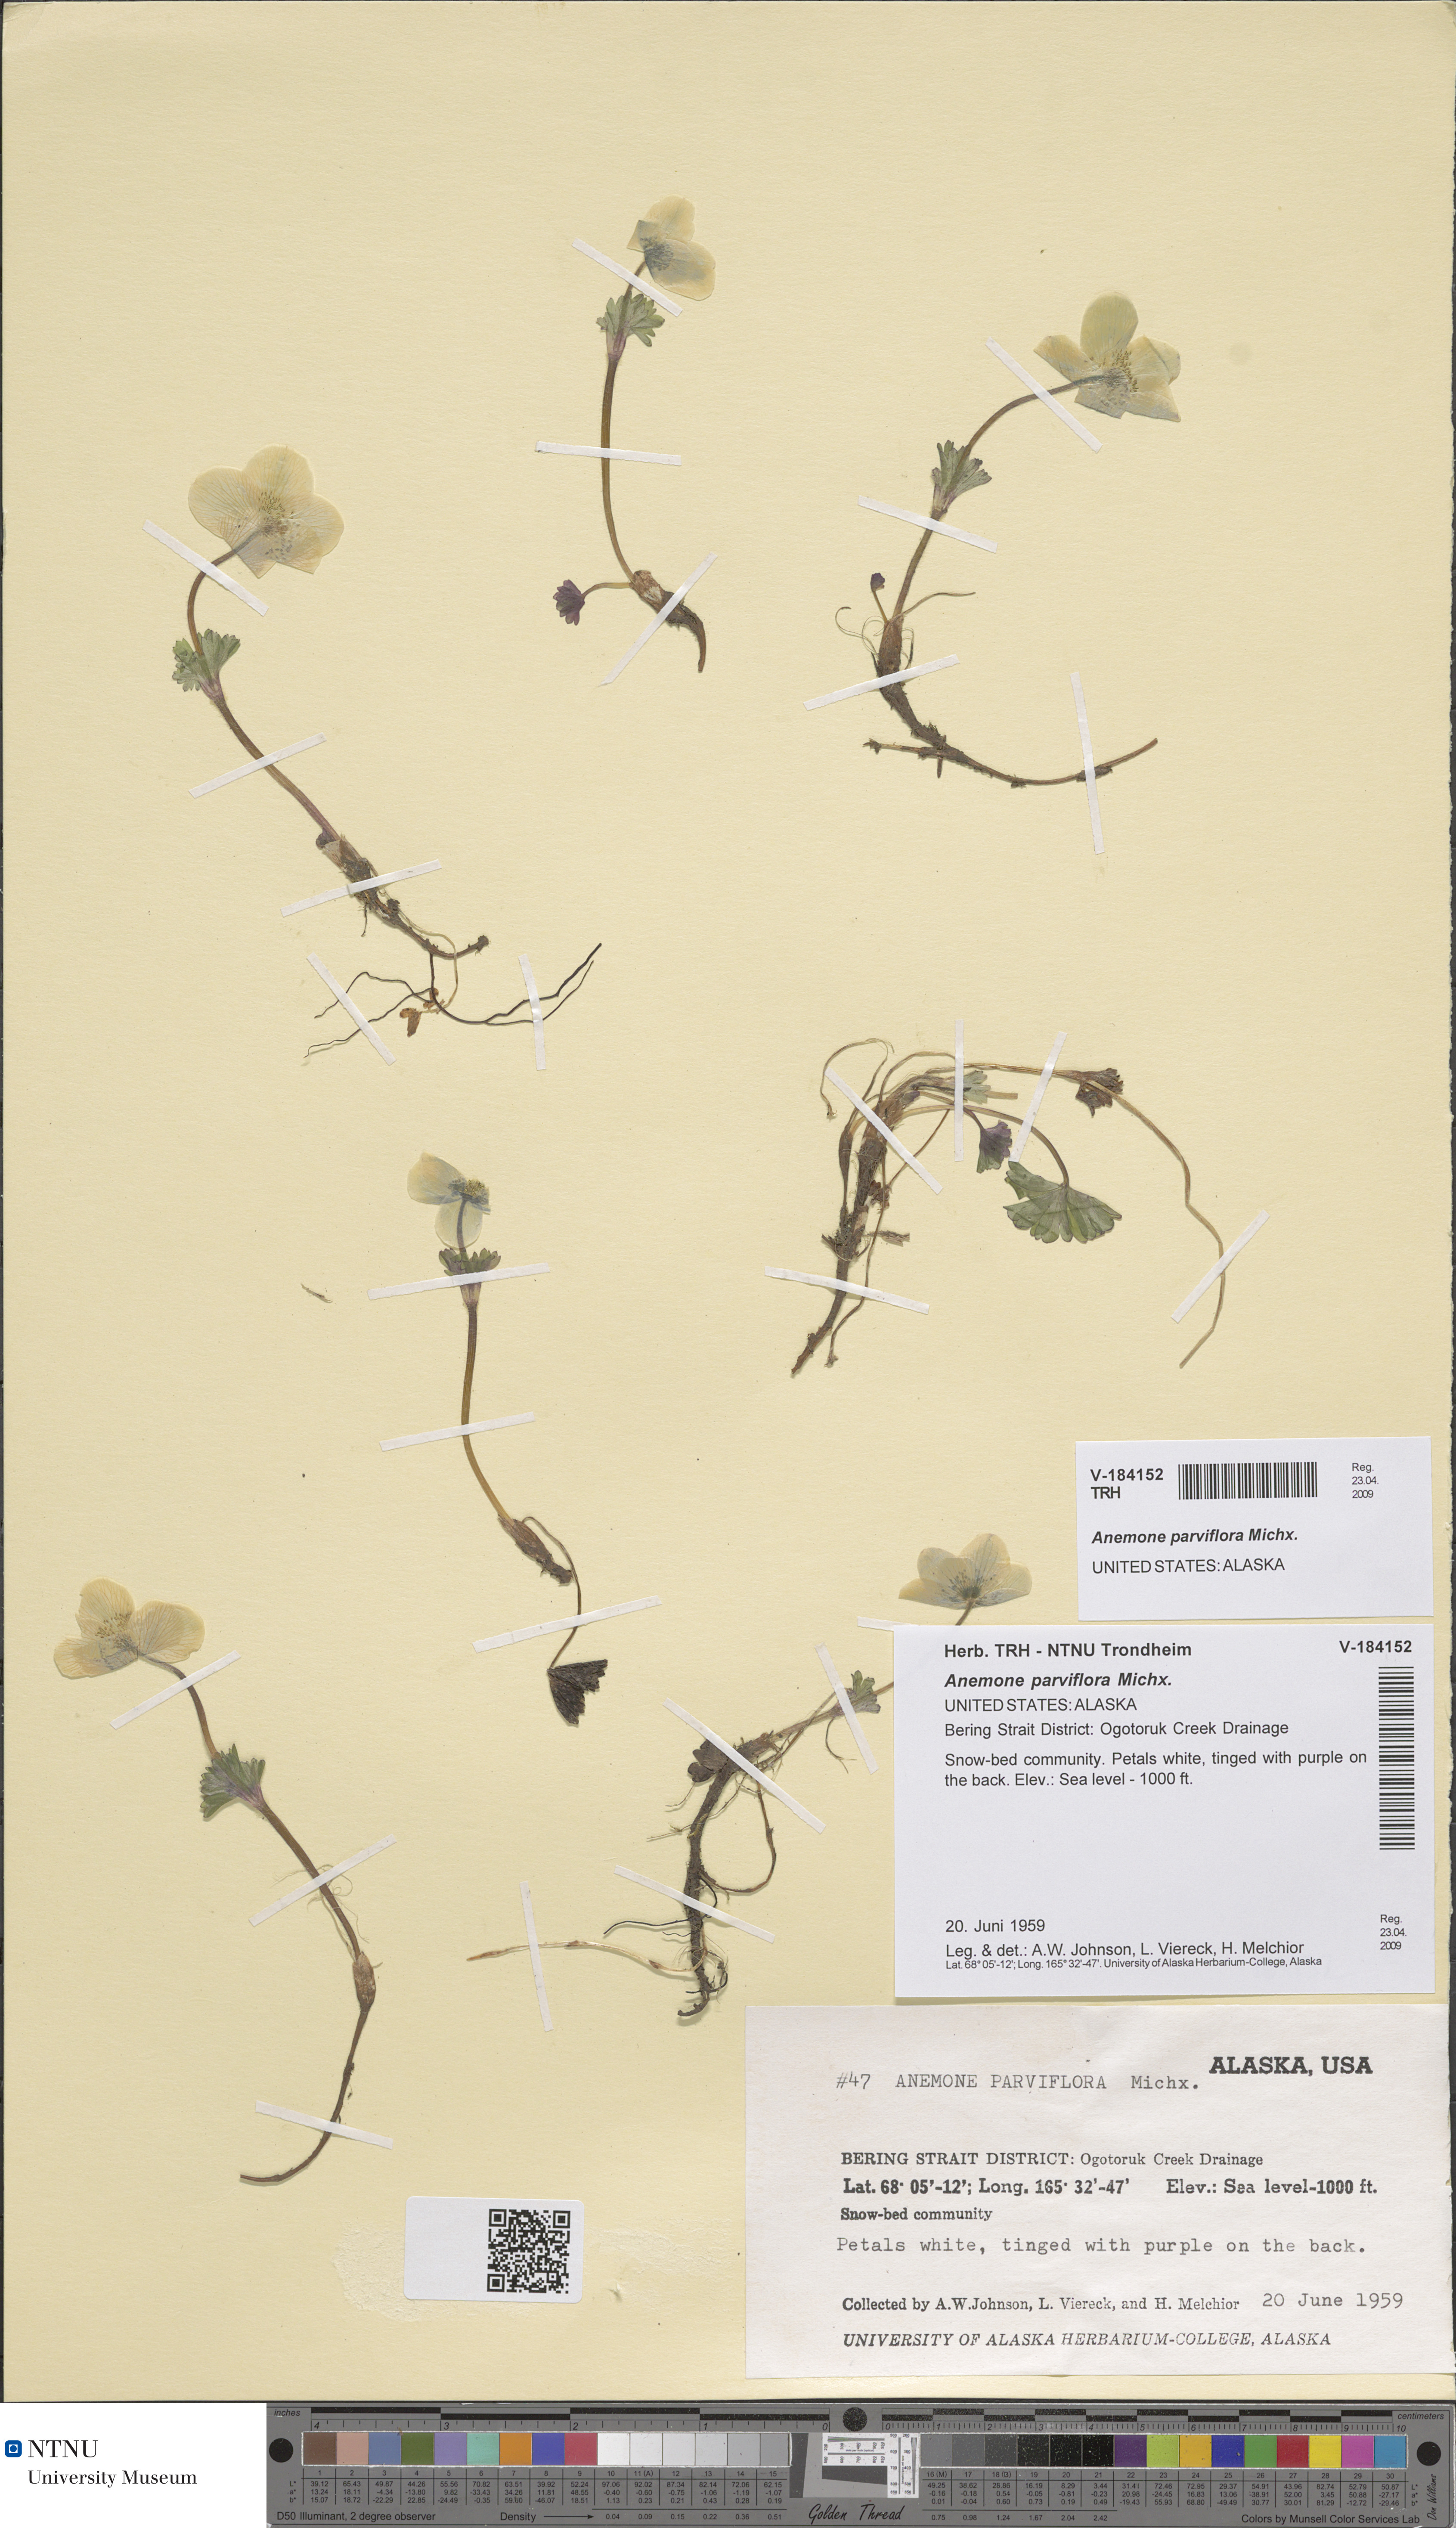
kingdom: Plantae
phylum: Tracheophyta
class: Magnoliopsida
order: Ranunculales
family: Ranunculaceae
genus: Anemone
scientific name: Anemone parviflora
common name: Northern anemone
